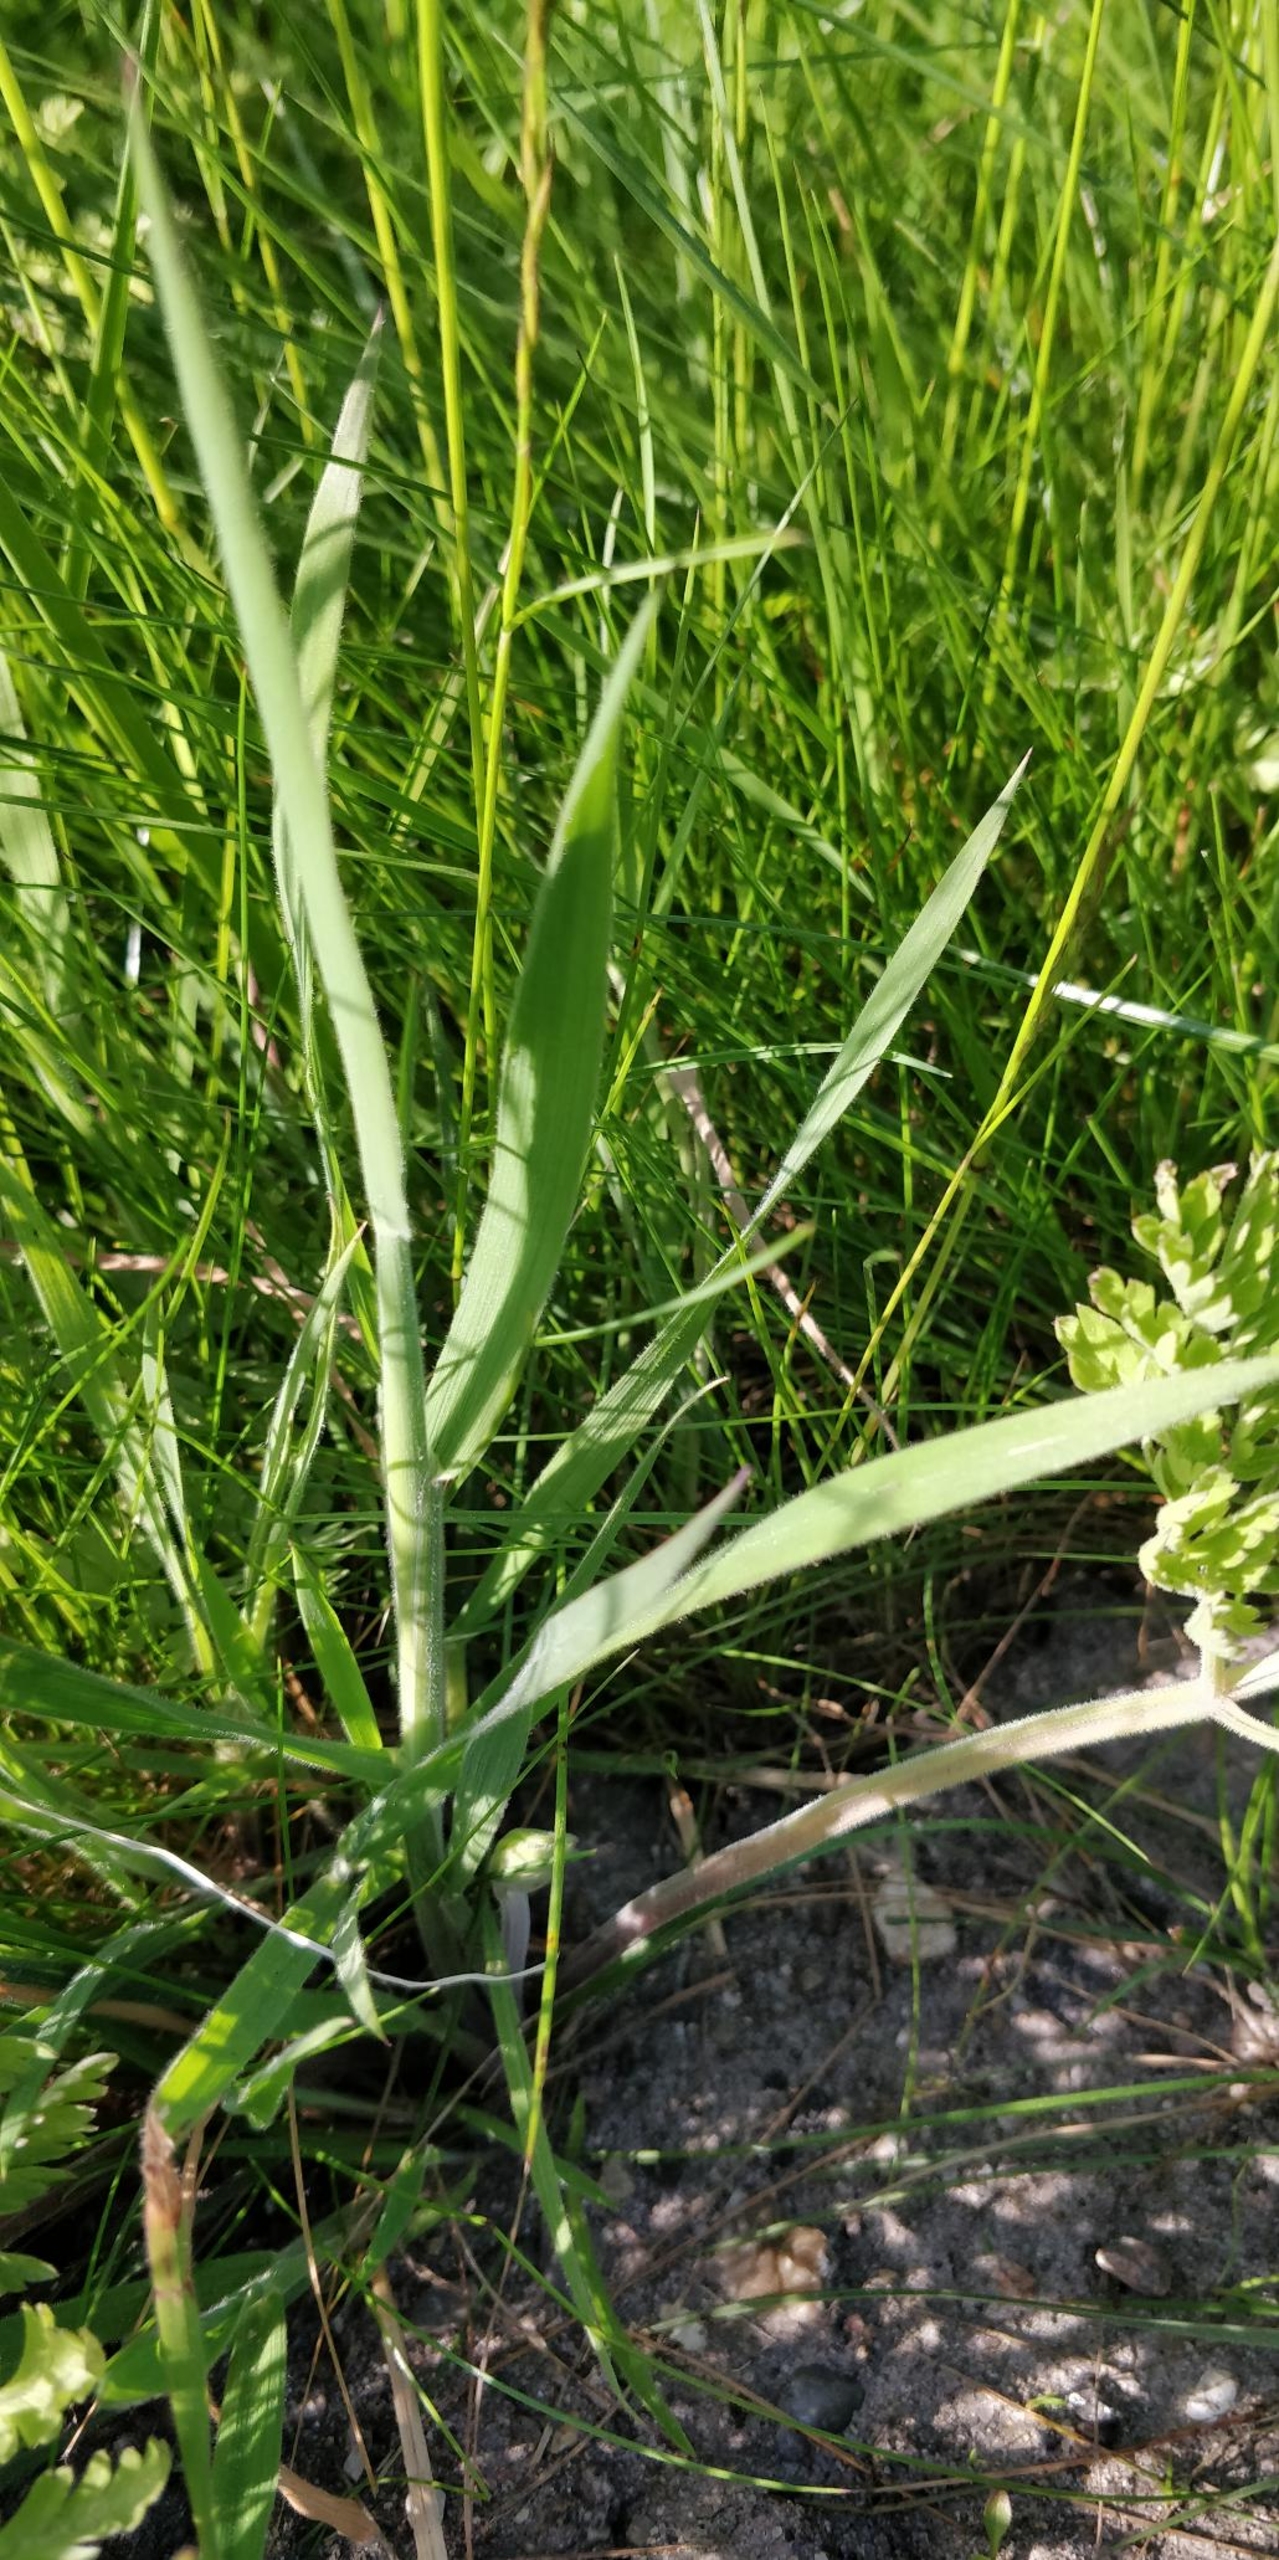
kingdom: Plantae
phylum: Tracheophyta
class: Liliopsida
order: Poales
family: Poaceae
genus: Holcus
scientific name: Holcus lanatus
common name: Fløjlsgræs
